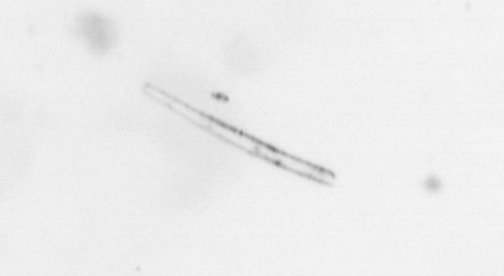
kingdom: Chromista
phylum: Ochrophyta
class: Bacillariophyceae
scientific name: Bacillariophyceae
